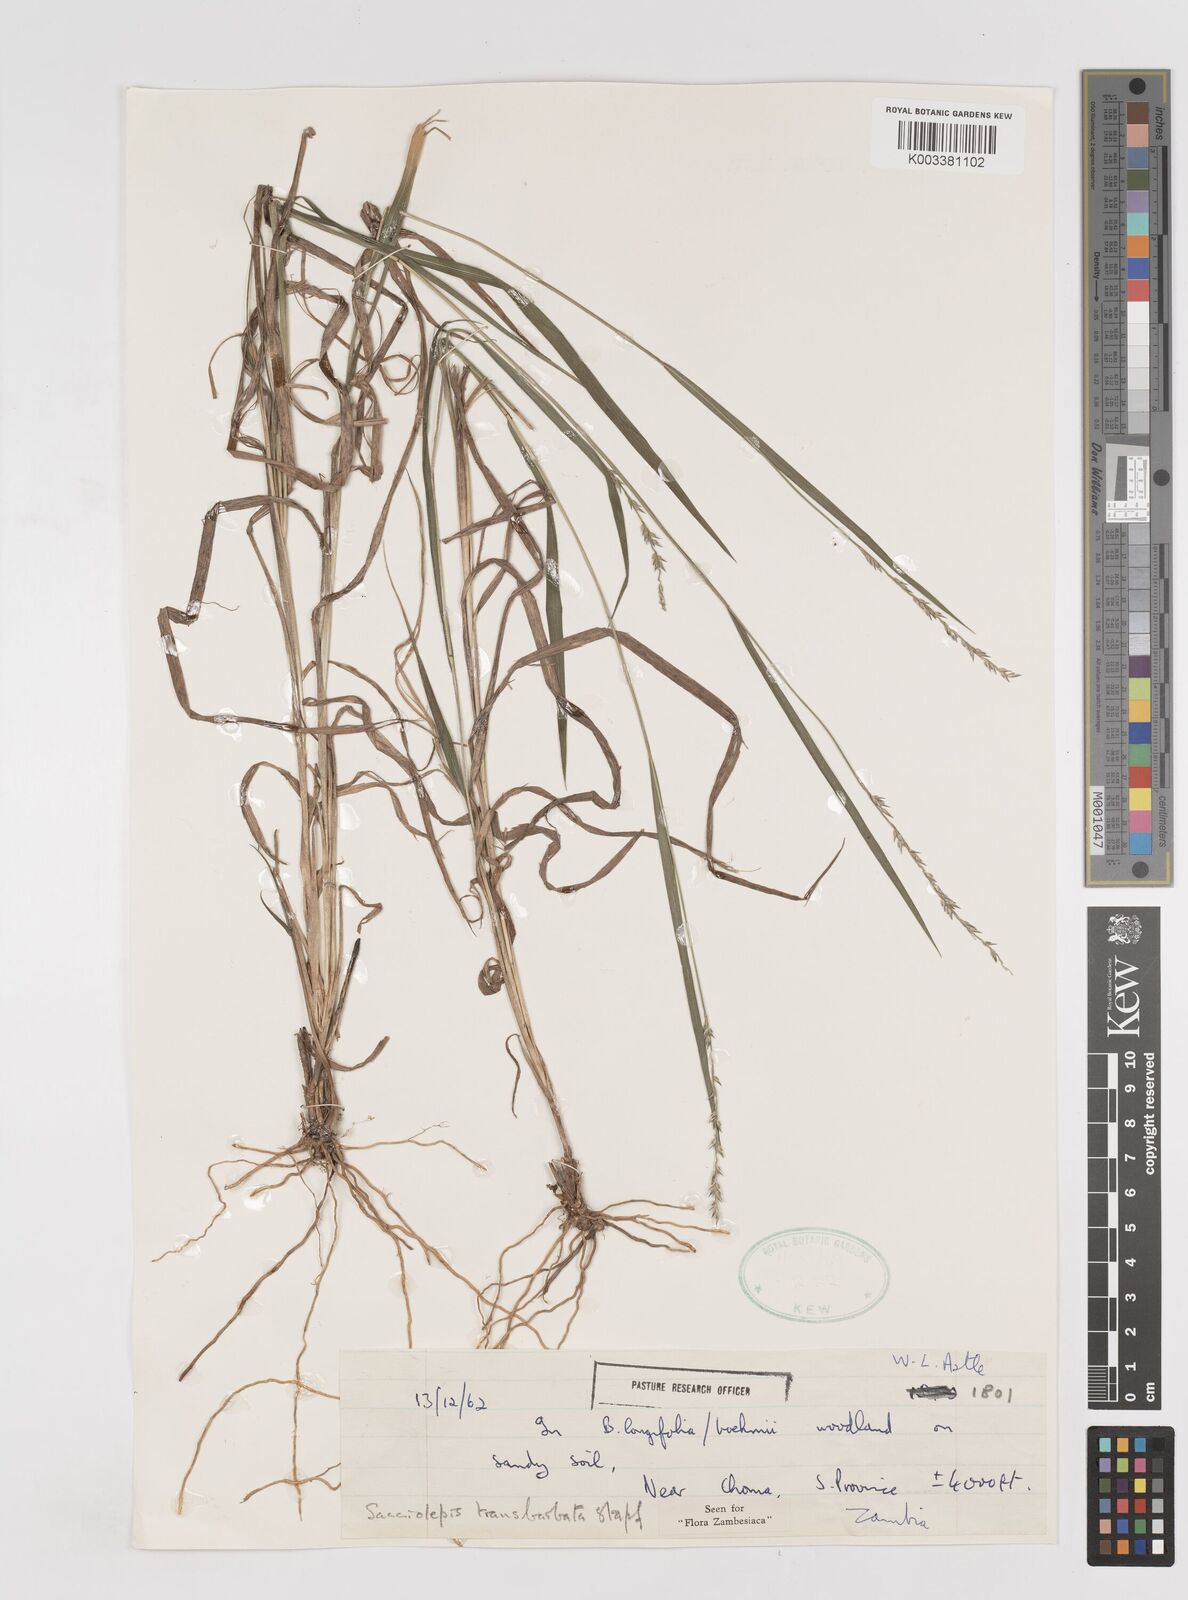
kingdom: Plantae
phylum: Tracheophyta
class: Liliopsida
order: Poales
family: Poaceae
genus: Sacciolepis
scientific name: Sacciolepis transbarbata
